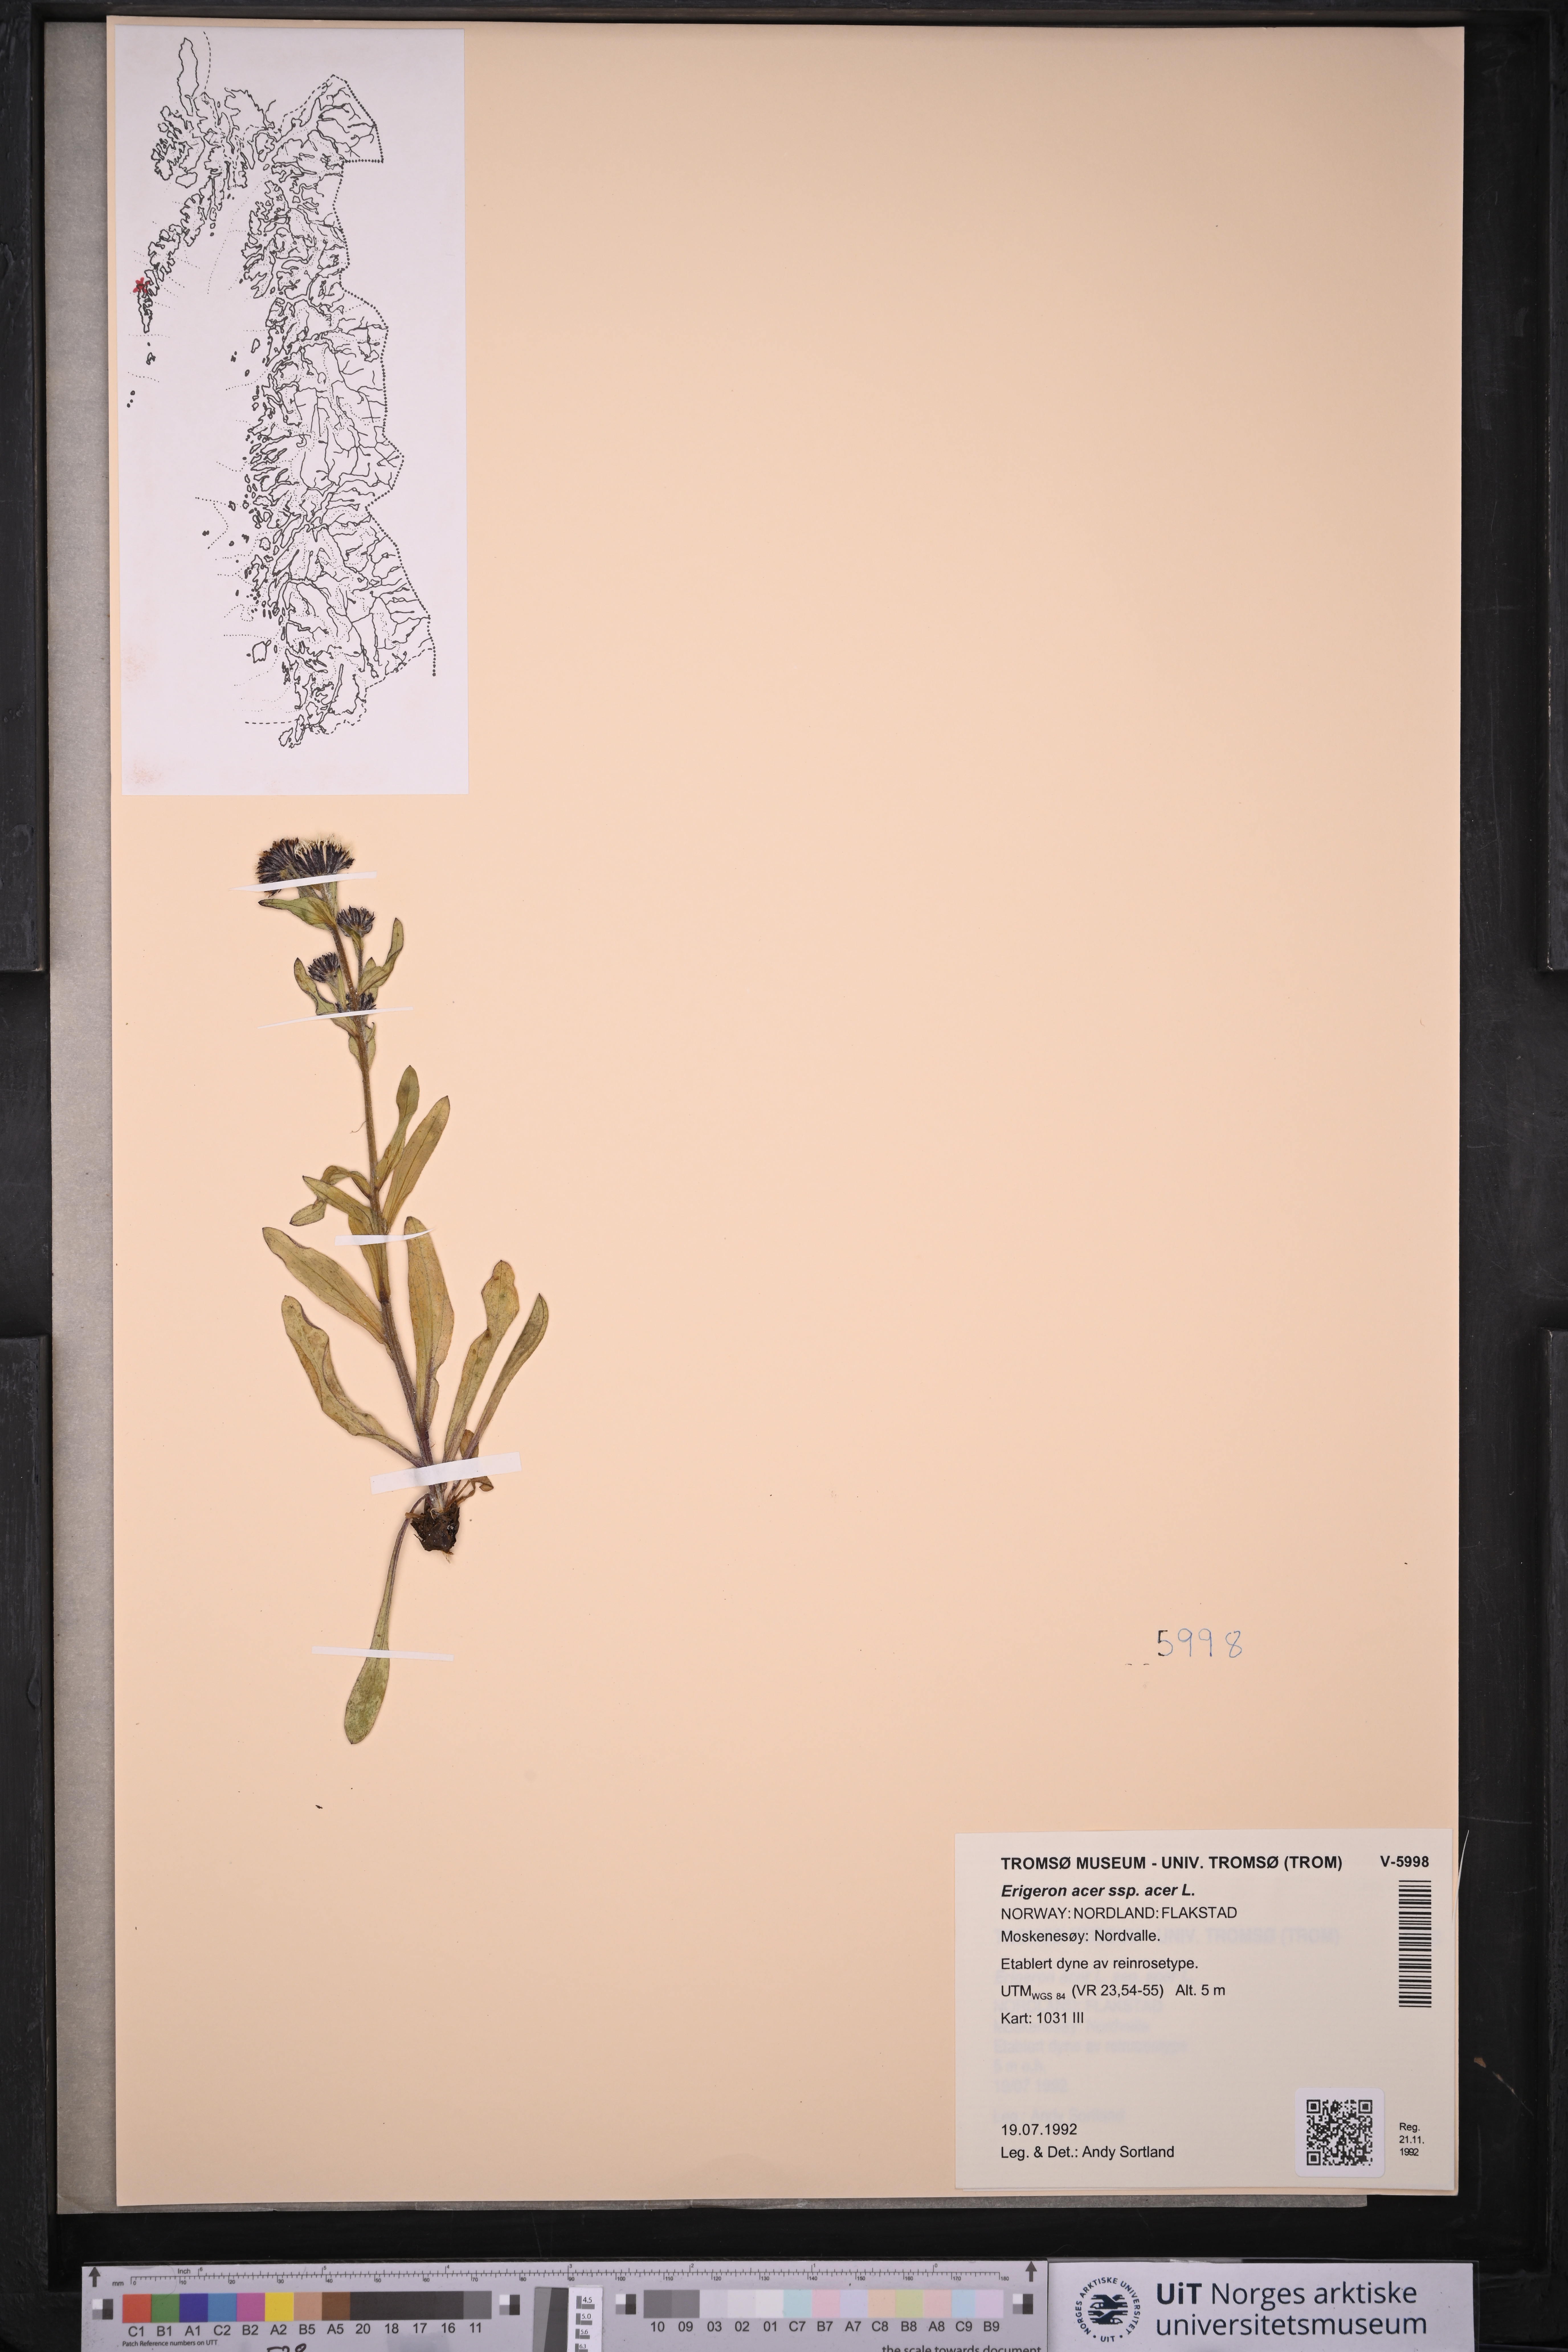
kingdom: Plantae
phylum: Tracheophyta
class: Magnoliopsida
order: Asterales
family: Asteraceae
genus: Erigeron
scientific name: Erigeron acris
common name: Blue fleabane
